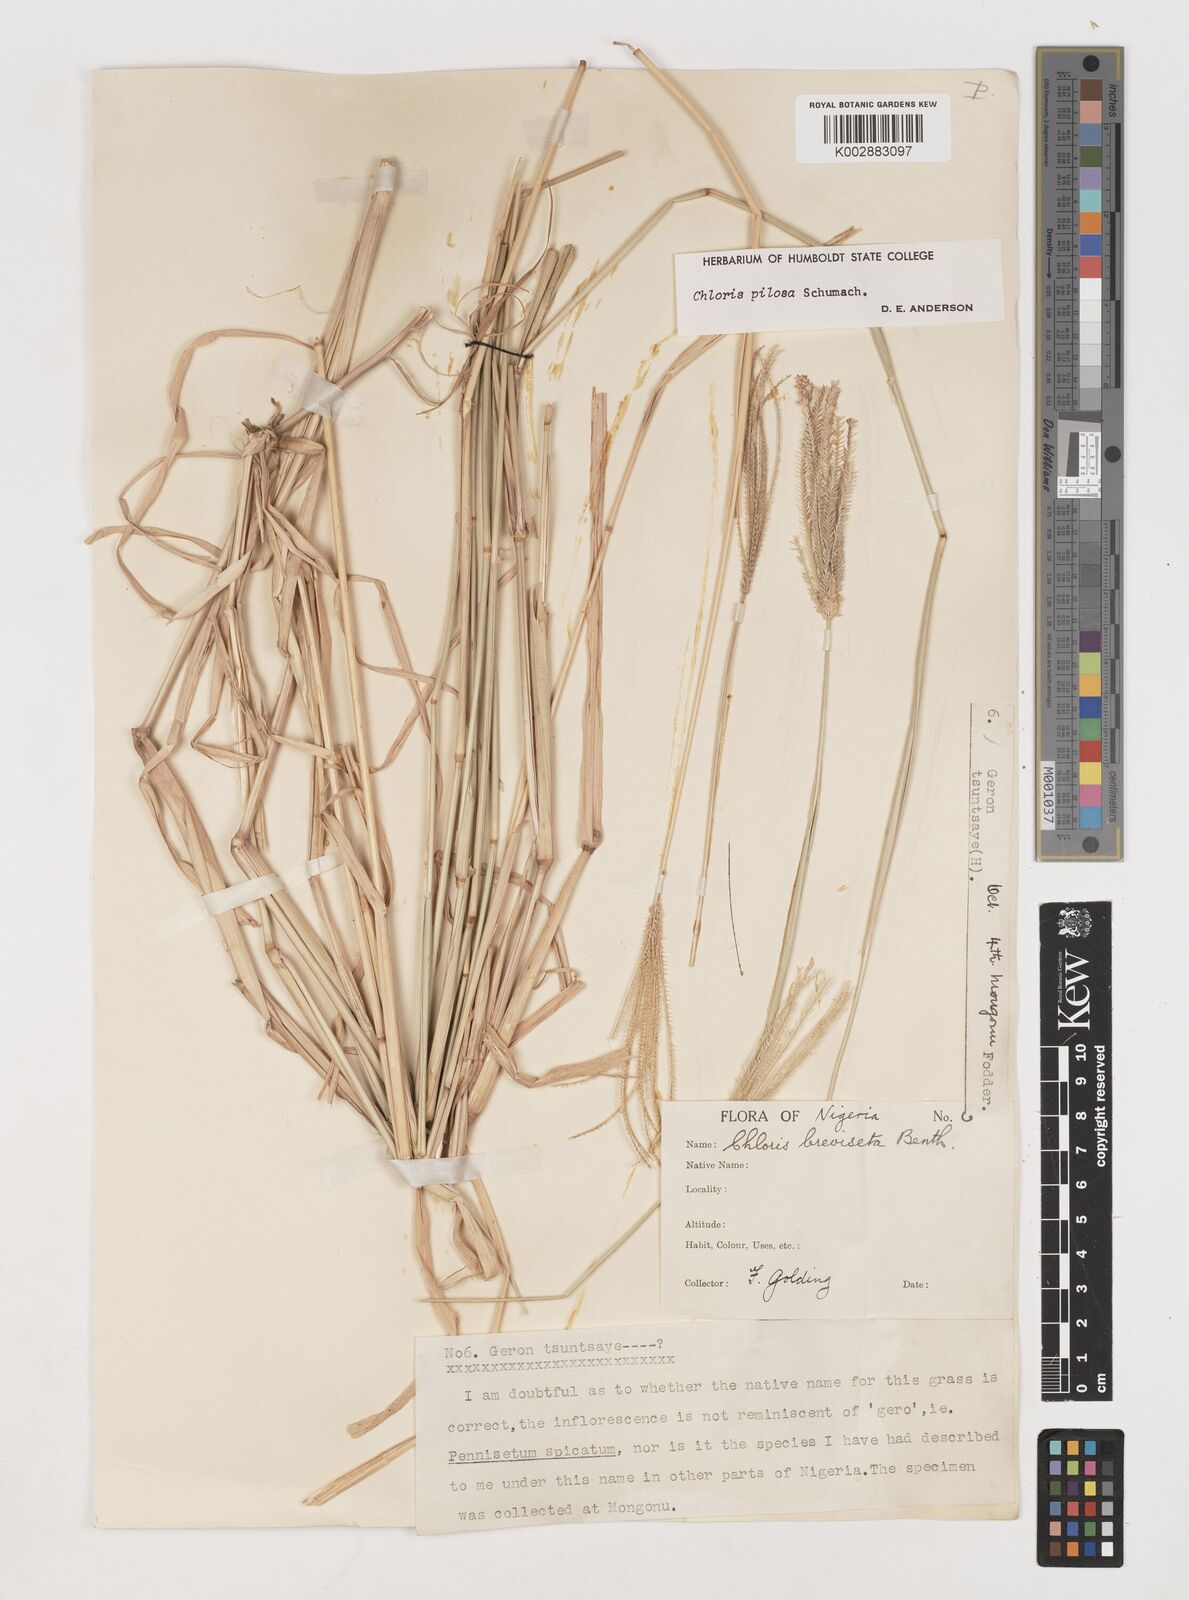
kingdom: Plantae
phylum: Tracheophyta
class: Liliopsida
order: Poales
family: Poaceae
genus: Chloris
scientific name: Chloris pilosa
